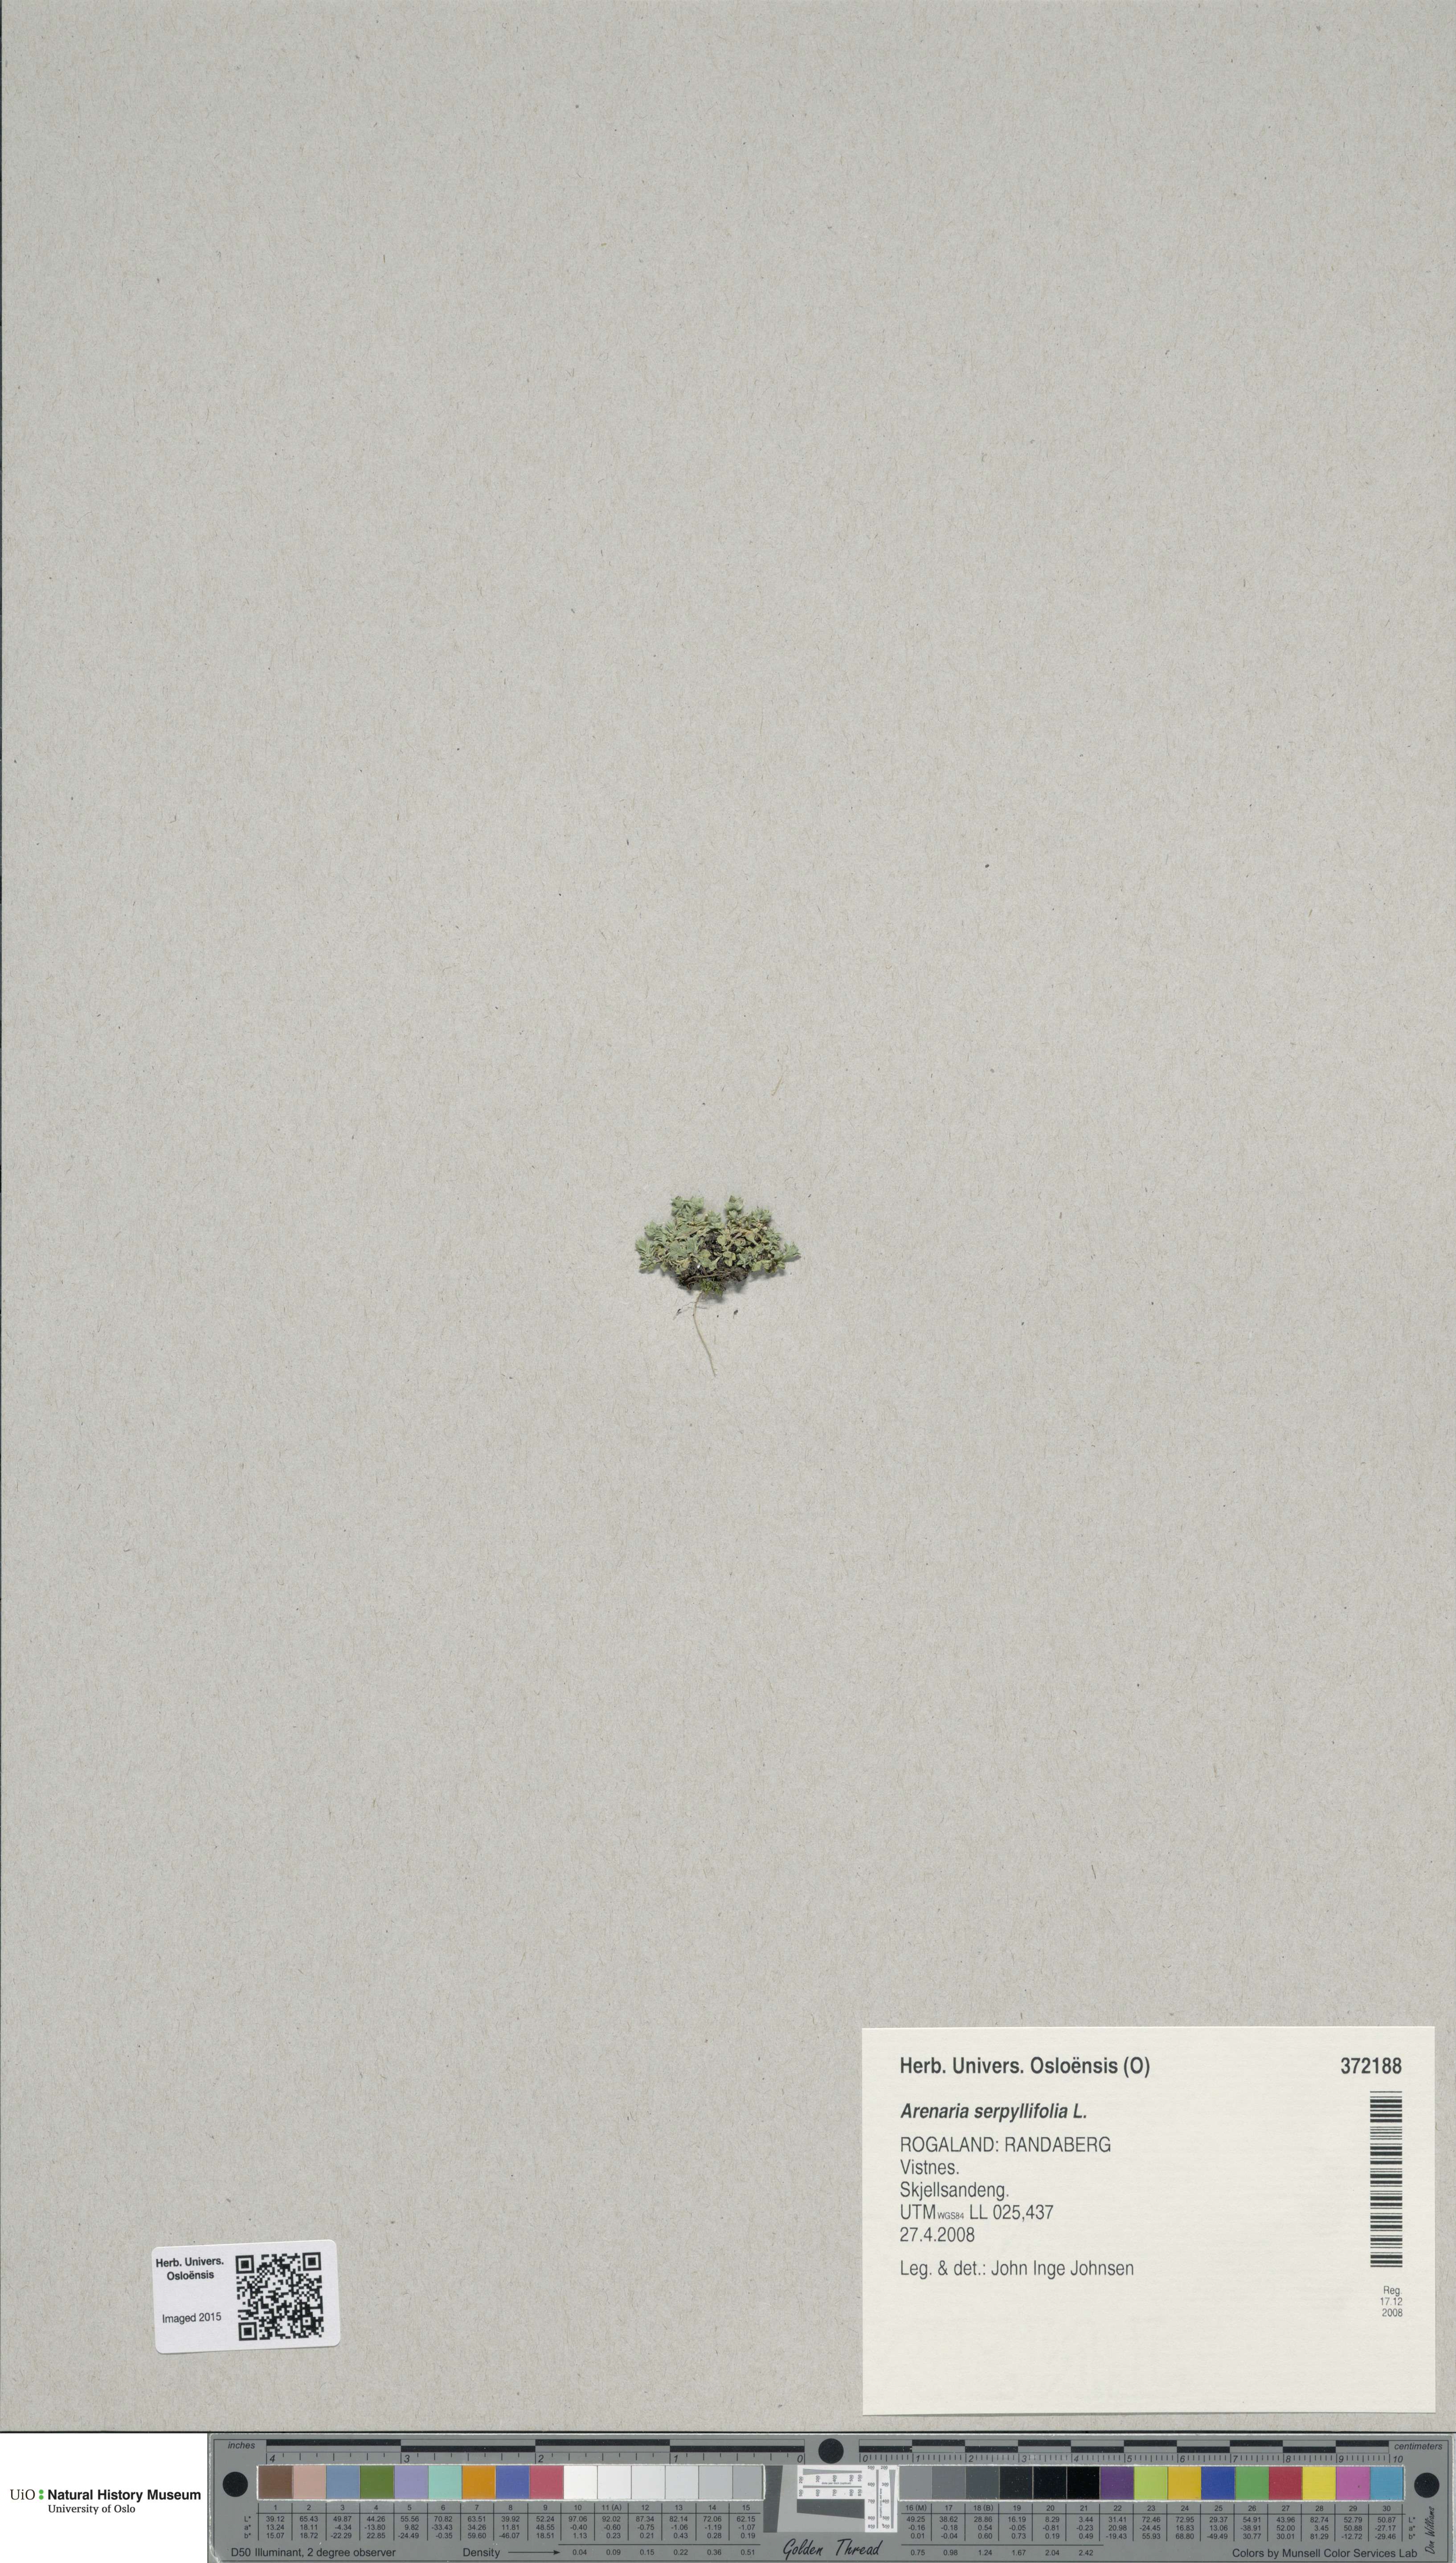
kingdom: Plantae
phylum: Tracheophyta
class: Magnoliopsida
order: Caryophyllales
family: Caryophyllaceae
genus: Arenaria
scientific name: Arenaria serpyllifolia
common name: Thyme-leaved sandwort
